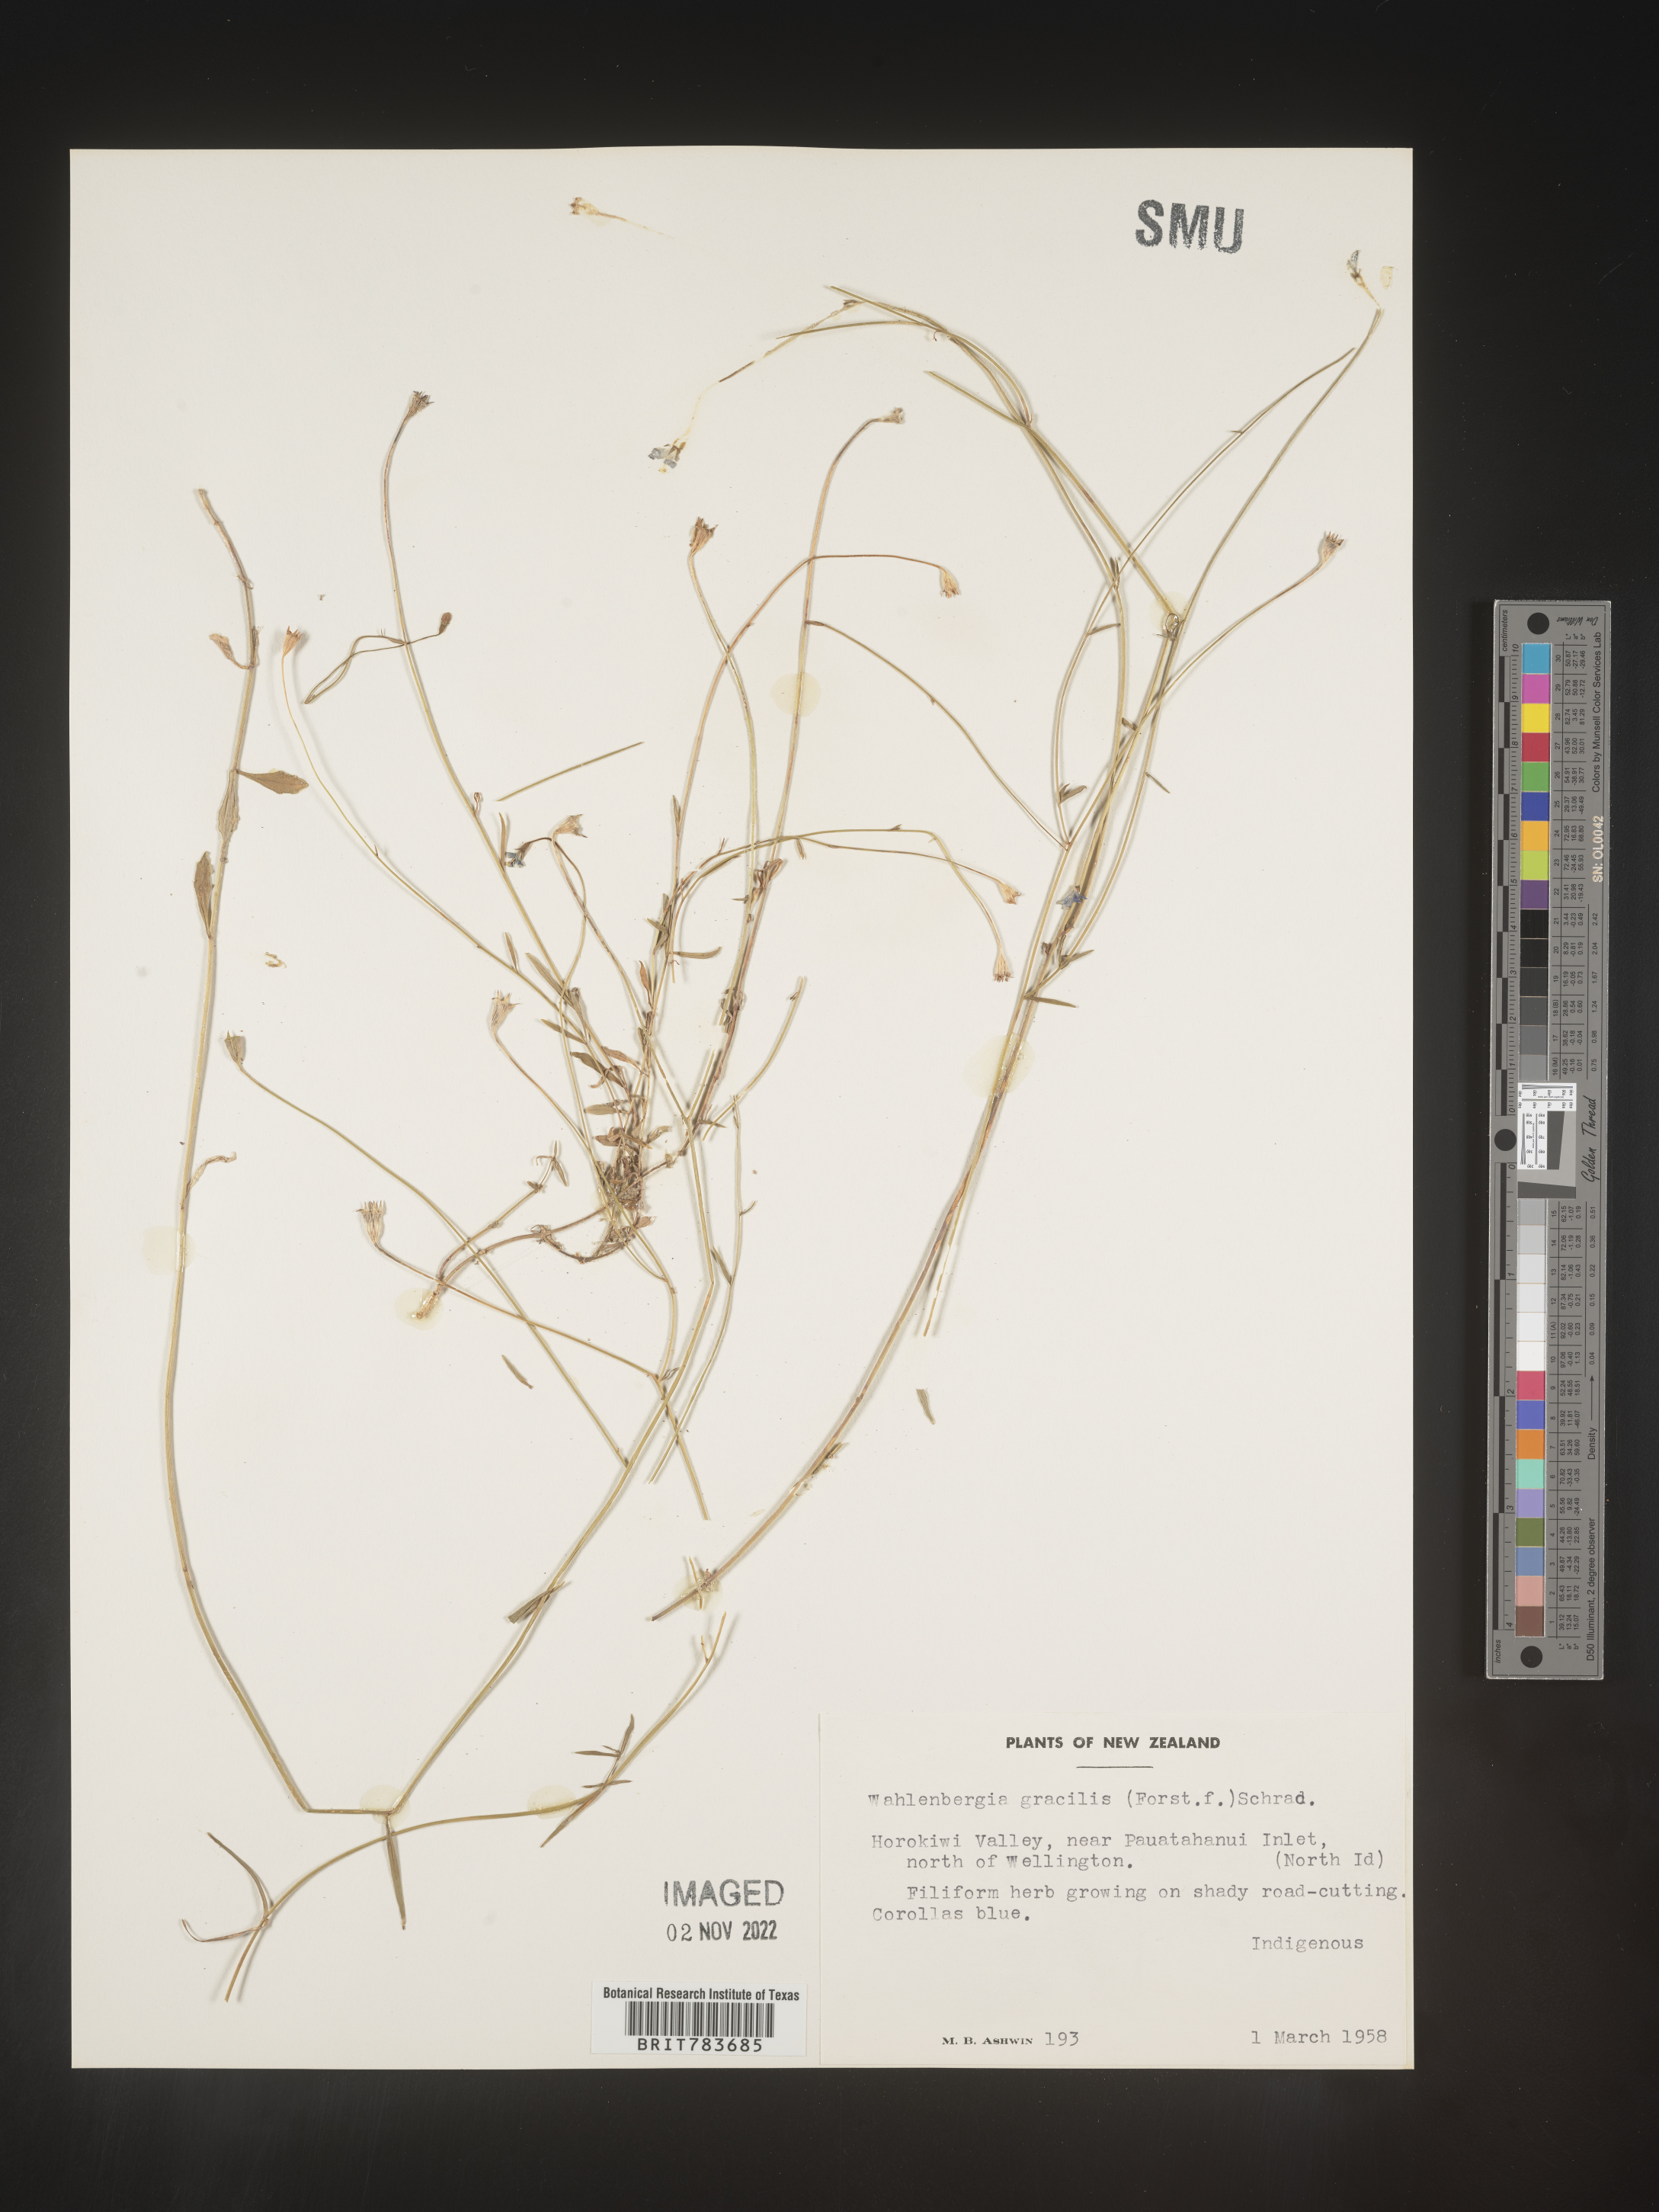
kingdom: Plantae
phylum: Tracheophyta
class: Magnoliopsida
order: Asterales
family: Campanulaceae
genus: Wahlenbergia
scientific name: Wahlenbergia
